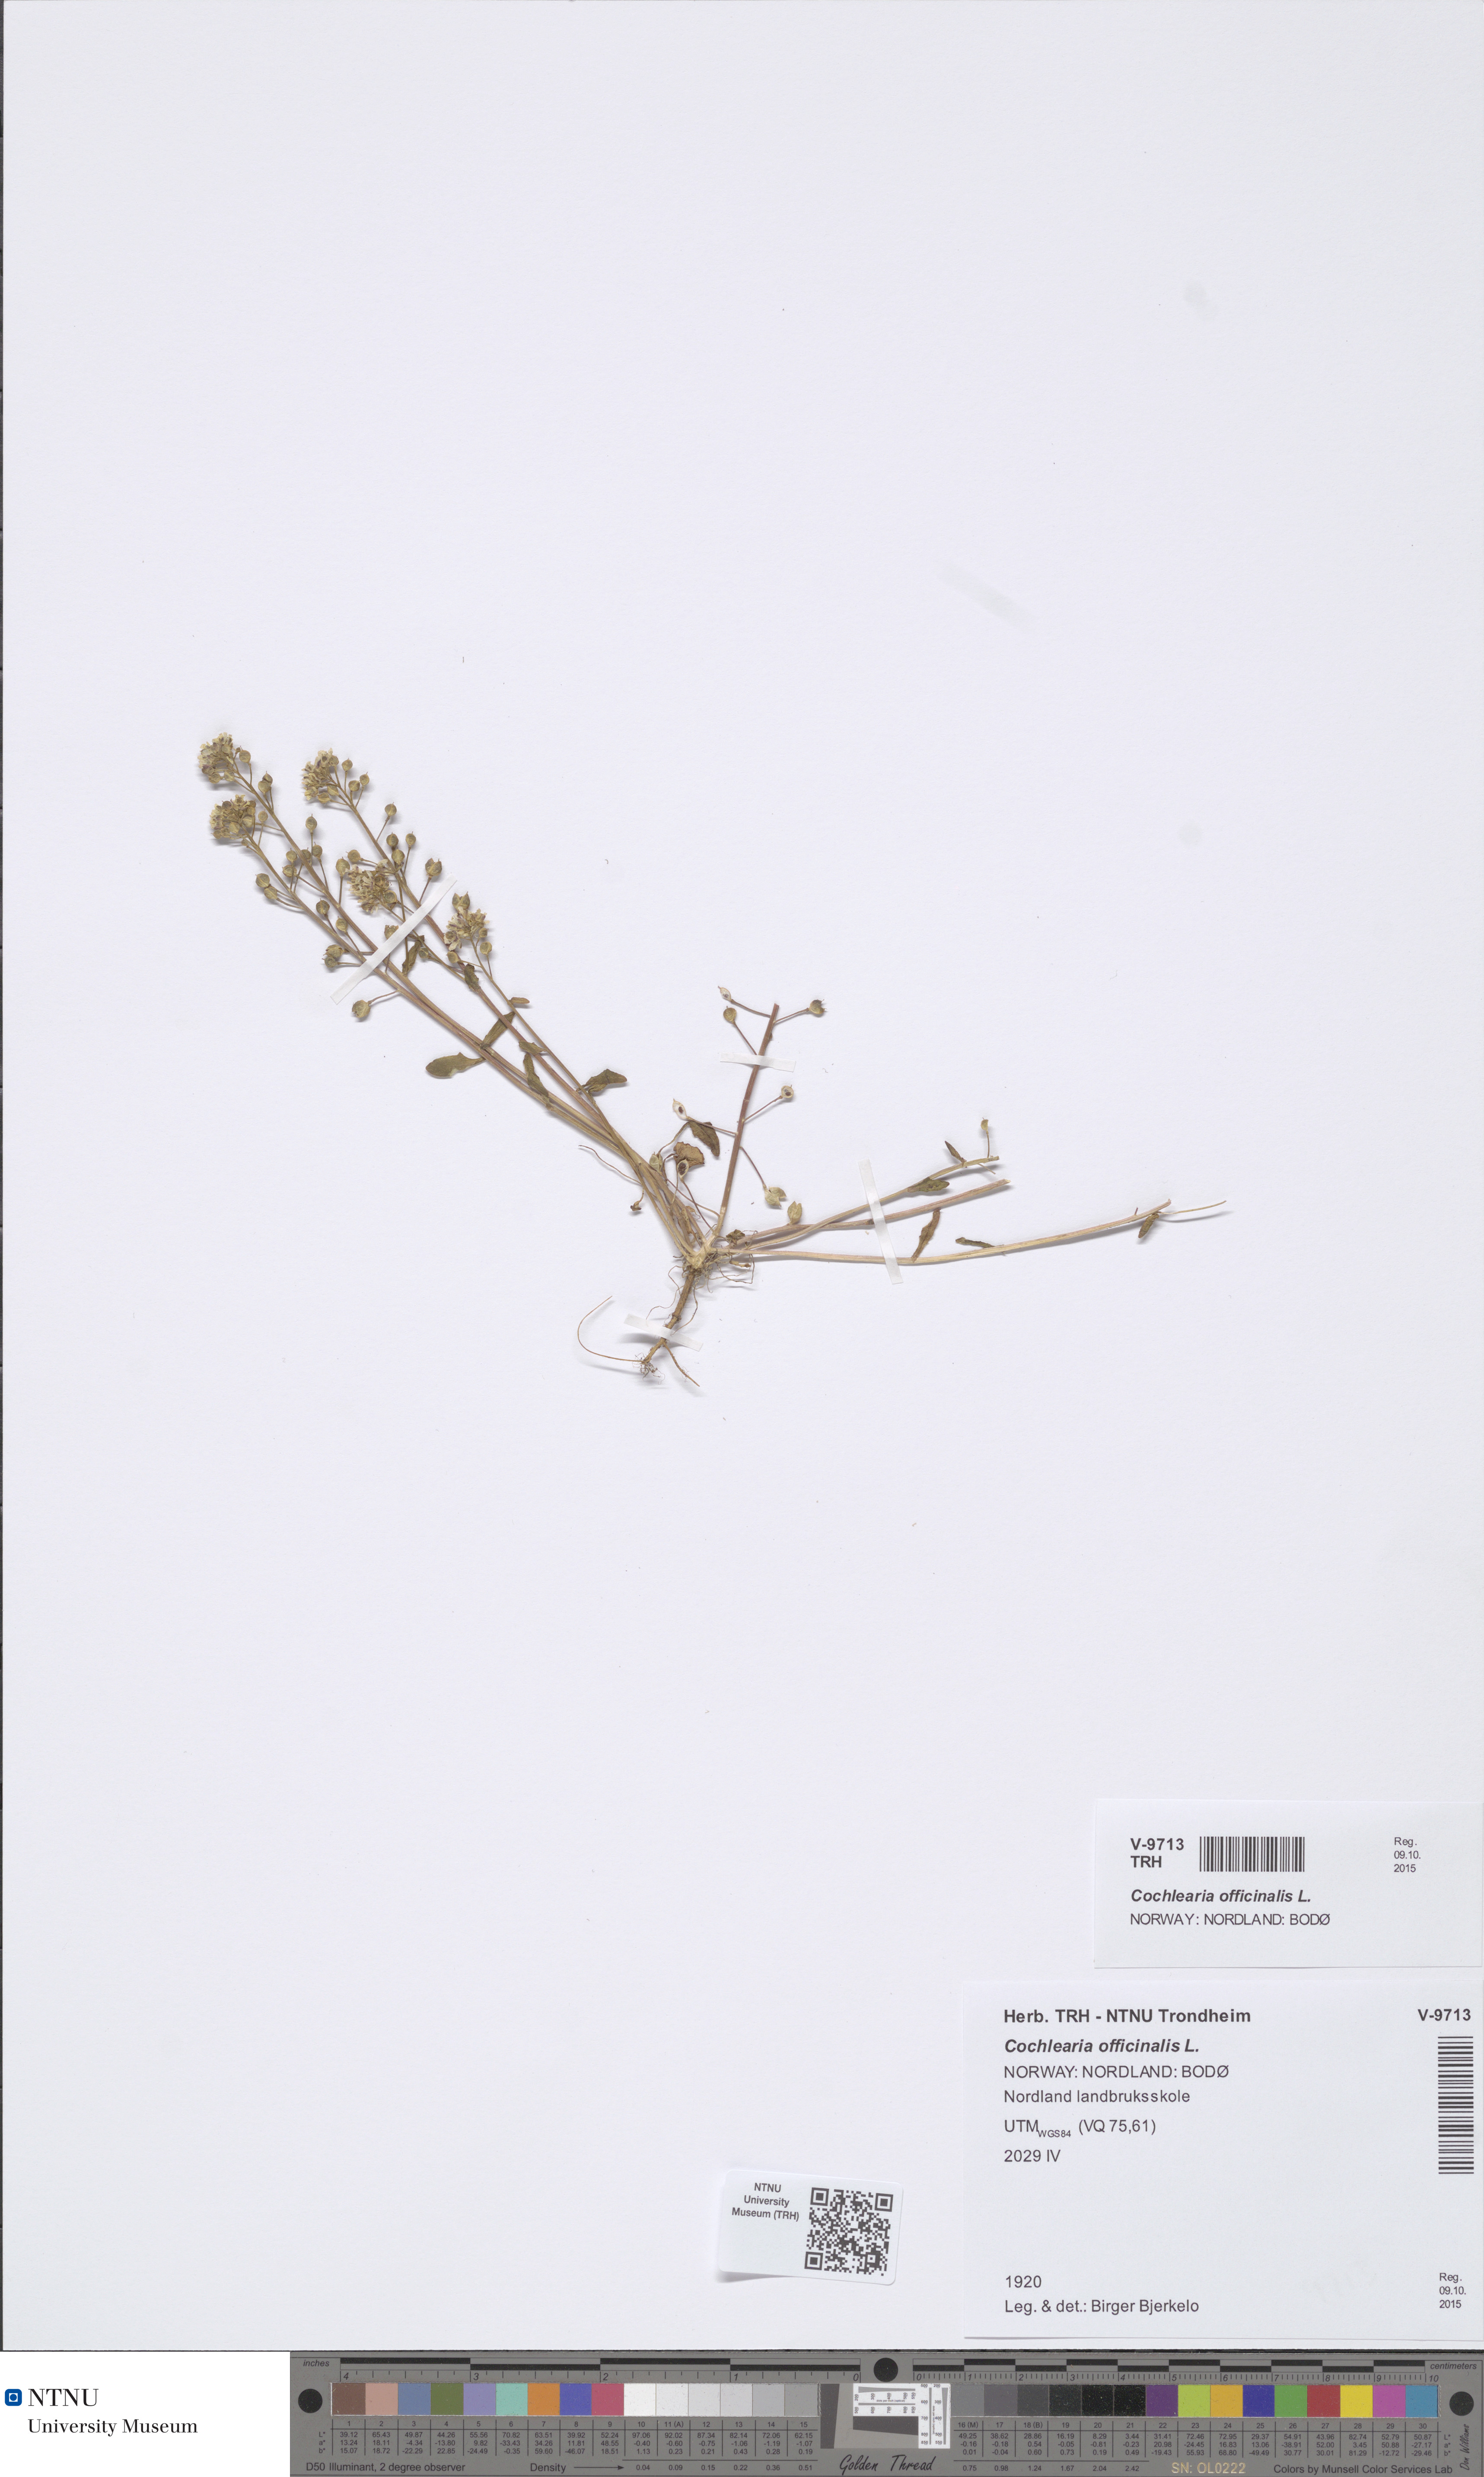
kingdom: Plantae
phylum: Tracheophyta
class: Magnoliopsida
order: Brassicales
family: Brassicaceae
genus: Cochlearia
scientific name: Cochlearia officinalis
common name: Scurvy-grass
